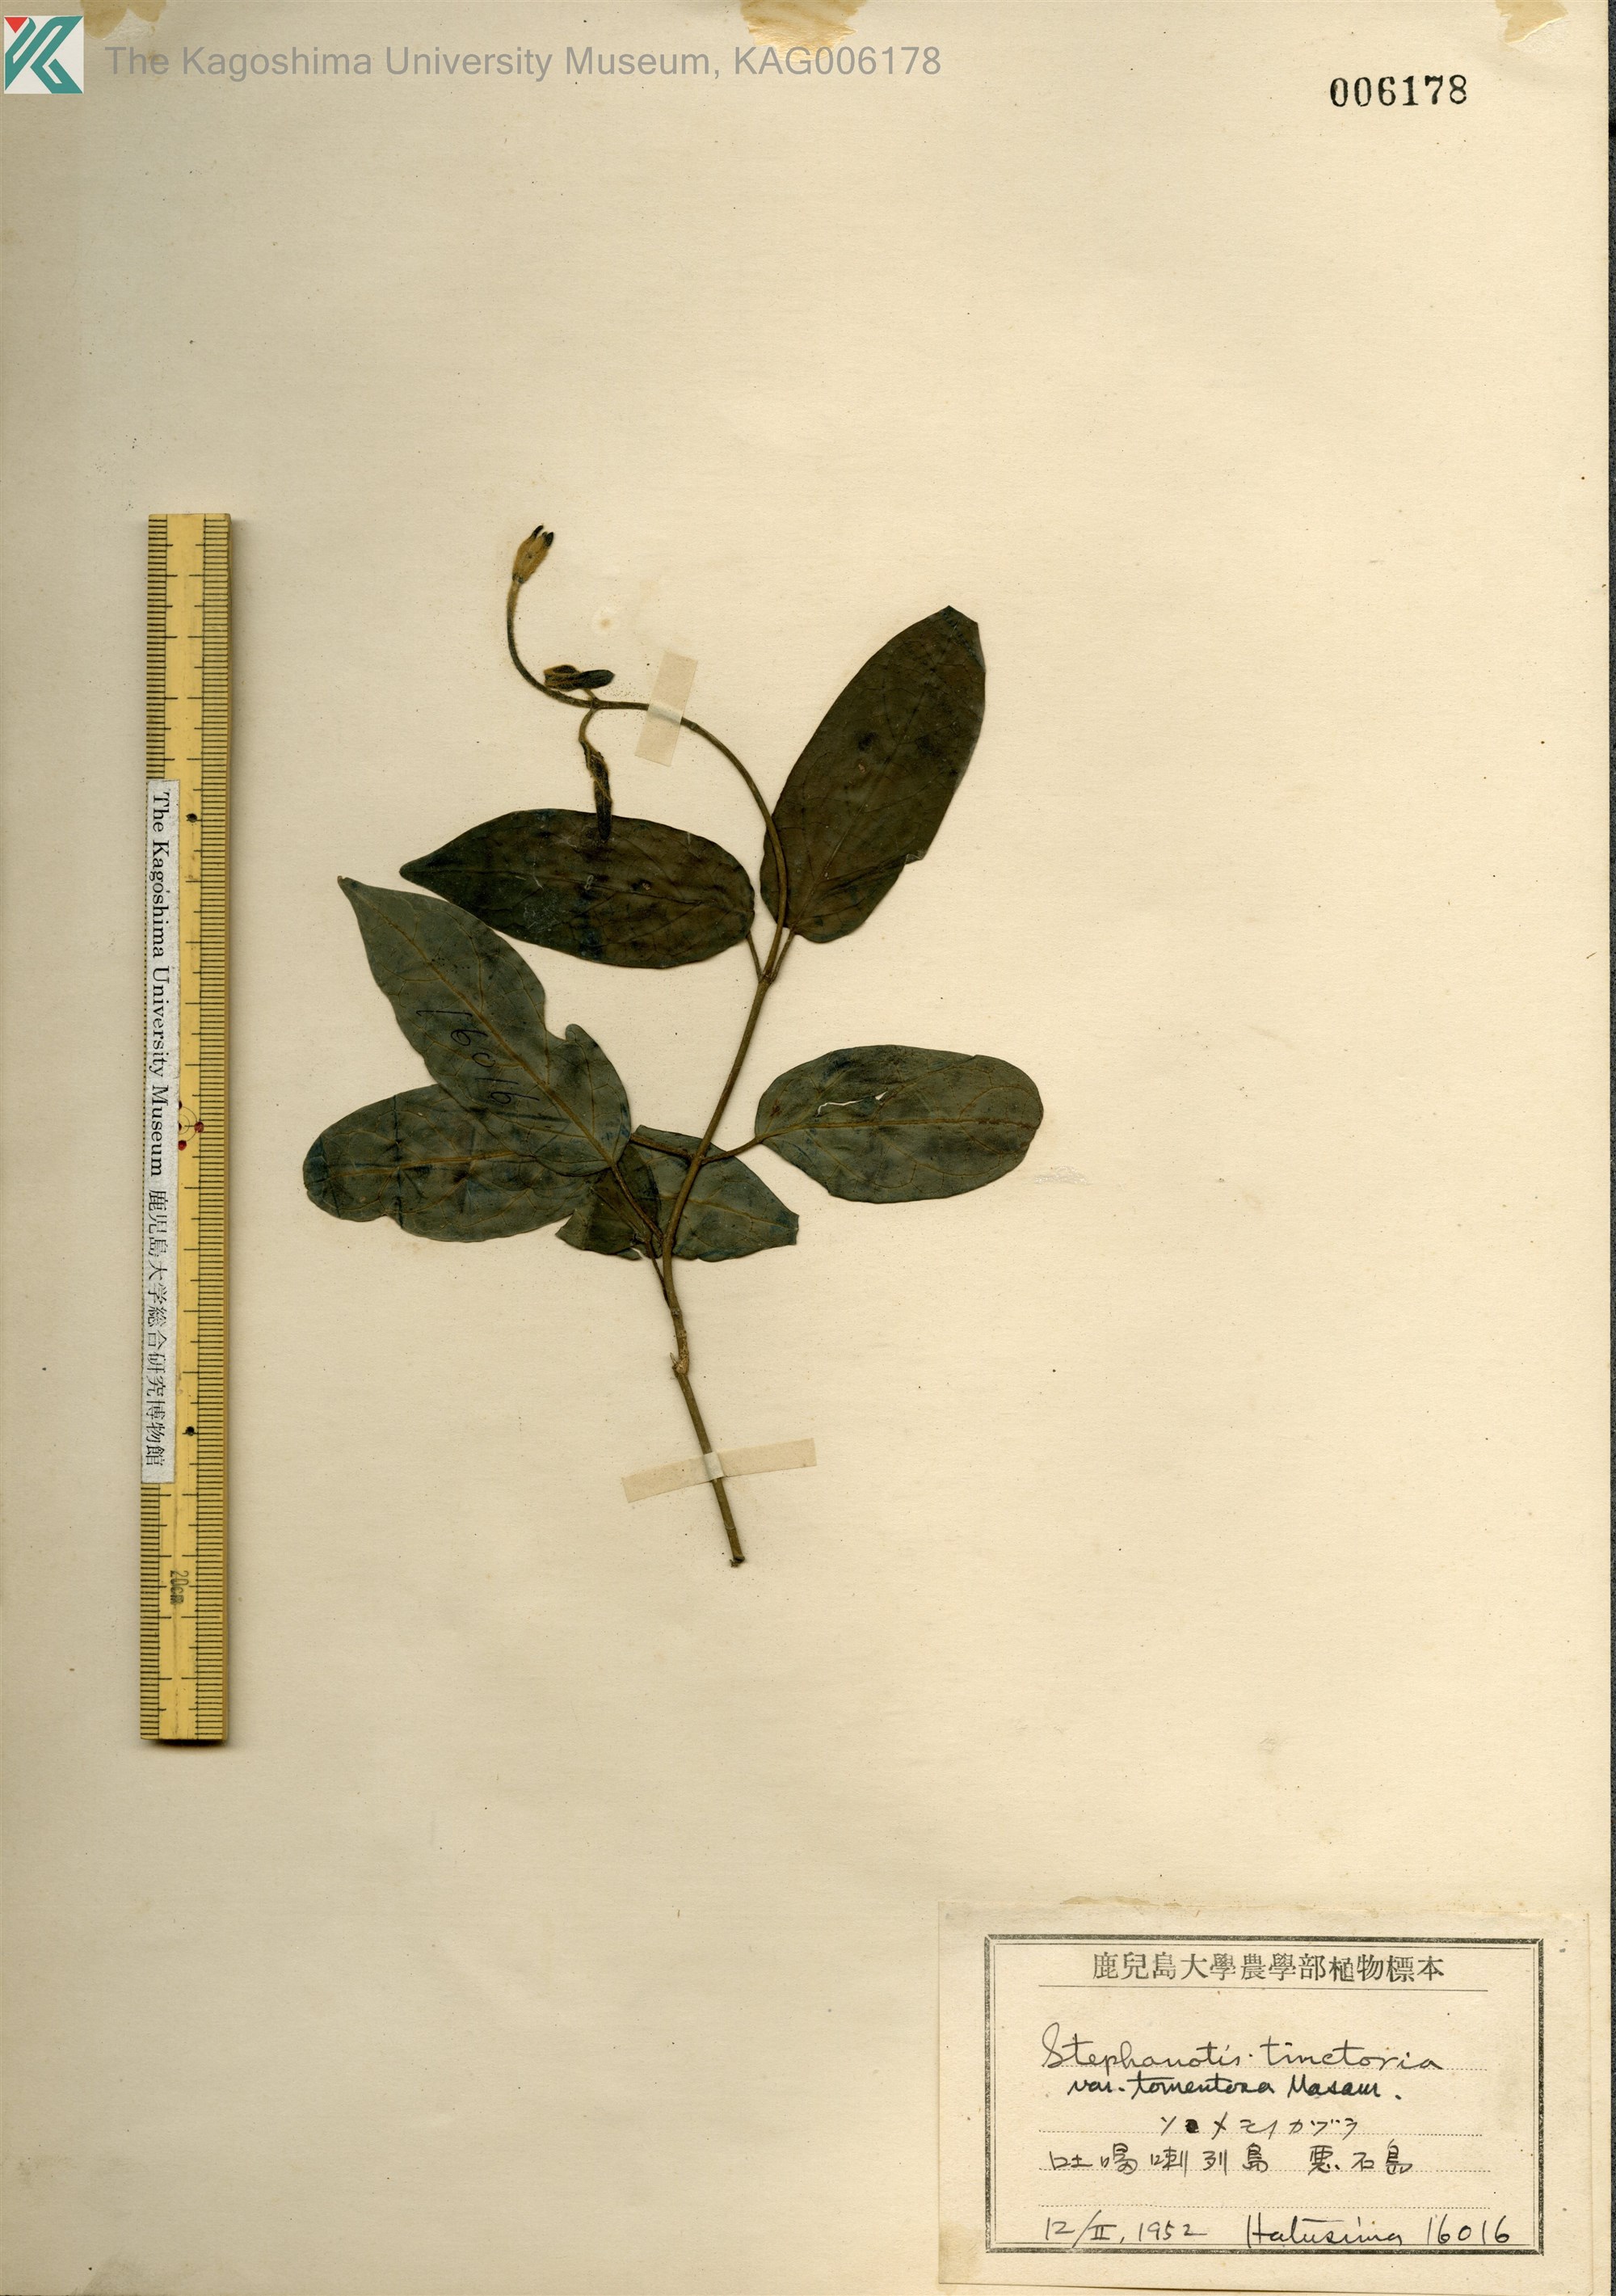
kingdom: Plantae
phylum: Tracheophyta
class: Magnoliopsida
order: Gentianales
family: Apocynaceae
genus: Marsdenia
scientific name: Marsdenia tinctoria
